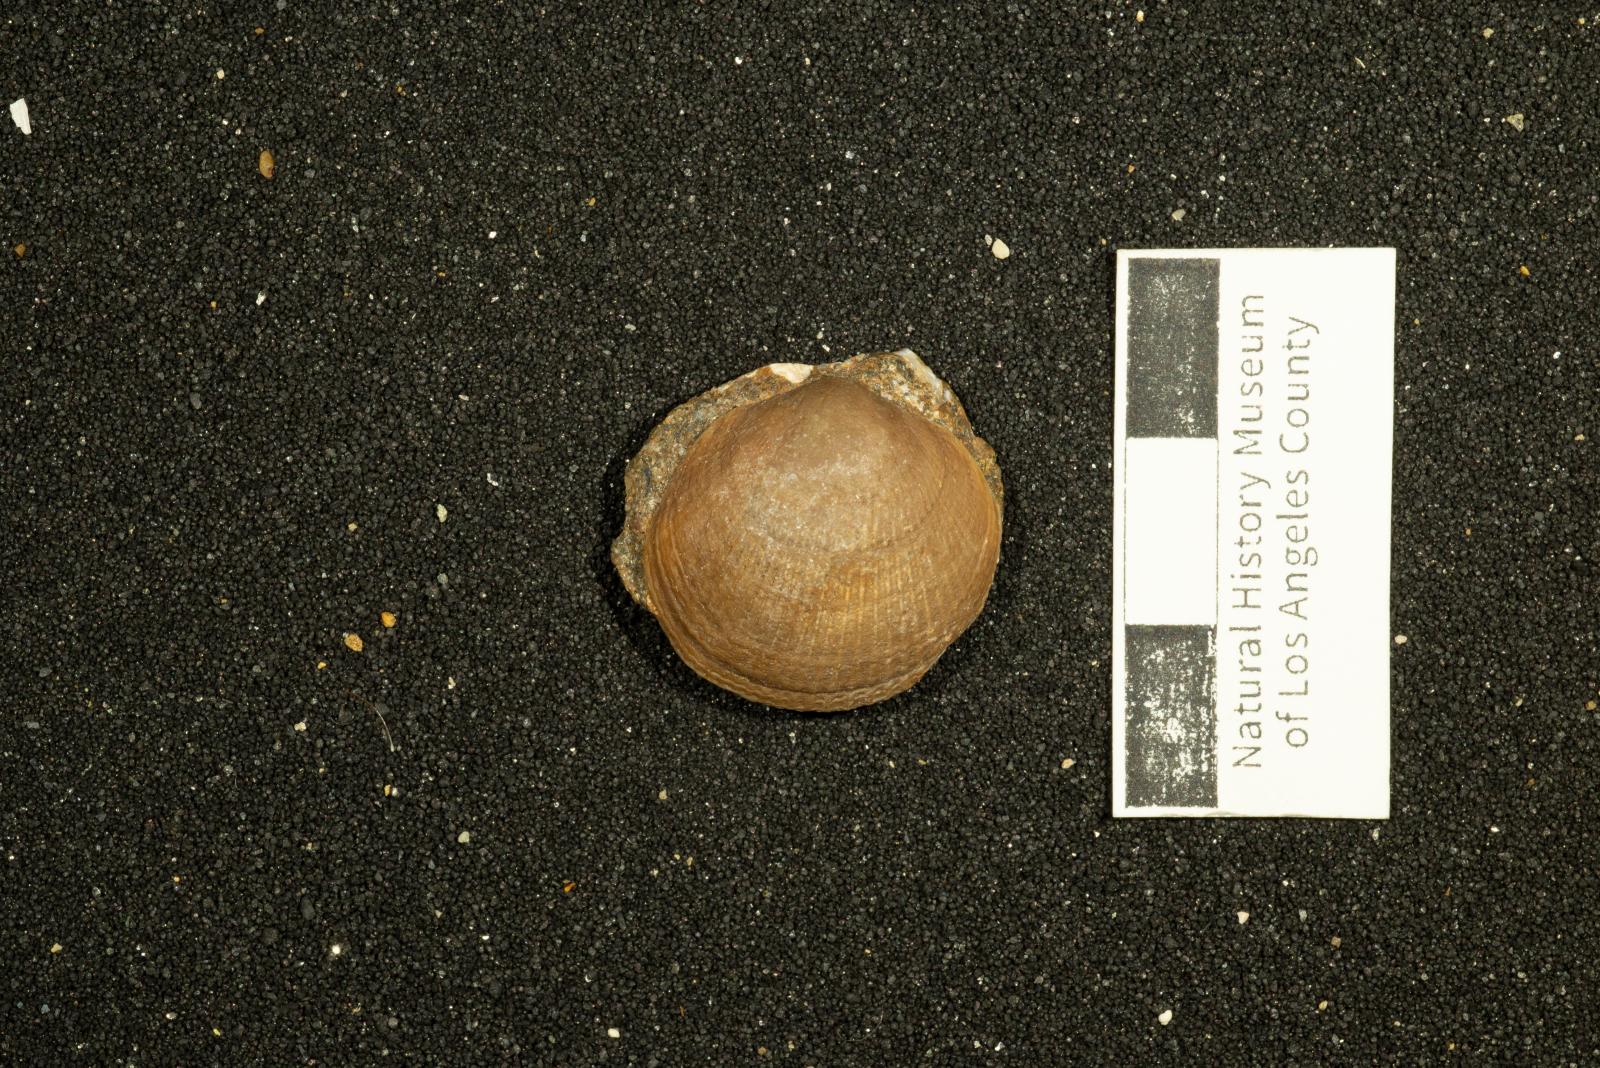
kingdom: Animalia
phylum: Mollusca
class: Bivalvia
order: Pectinida
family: Anomiidae
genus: Anomia
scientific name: Anomia
